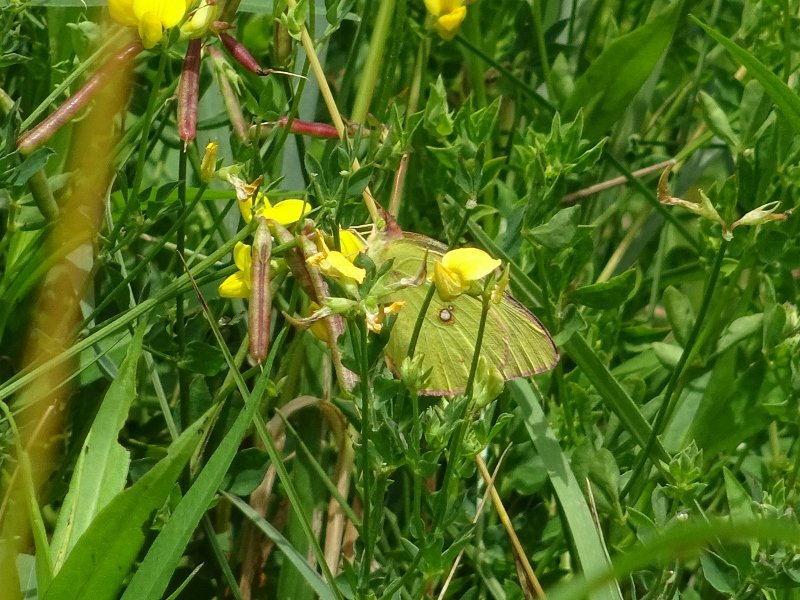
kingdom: Animalia
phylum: Arthropoda
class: Insecta
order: Lepidoptera
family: Pieridae
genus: Colias
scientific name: Colias philodice
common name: Clouded Sulphur
